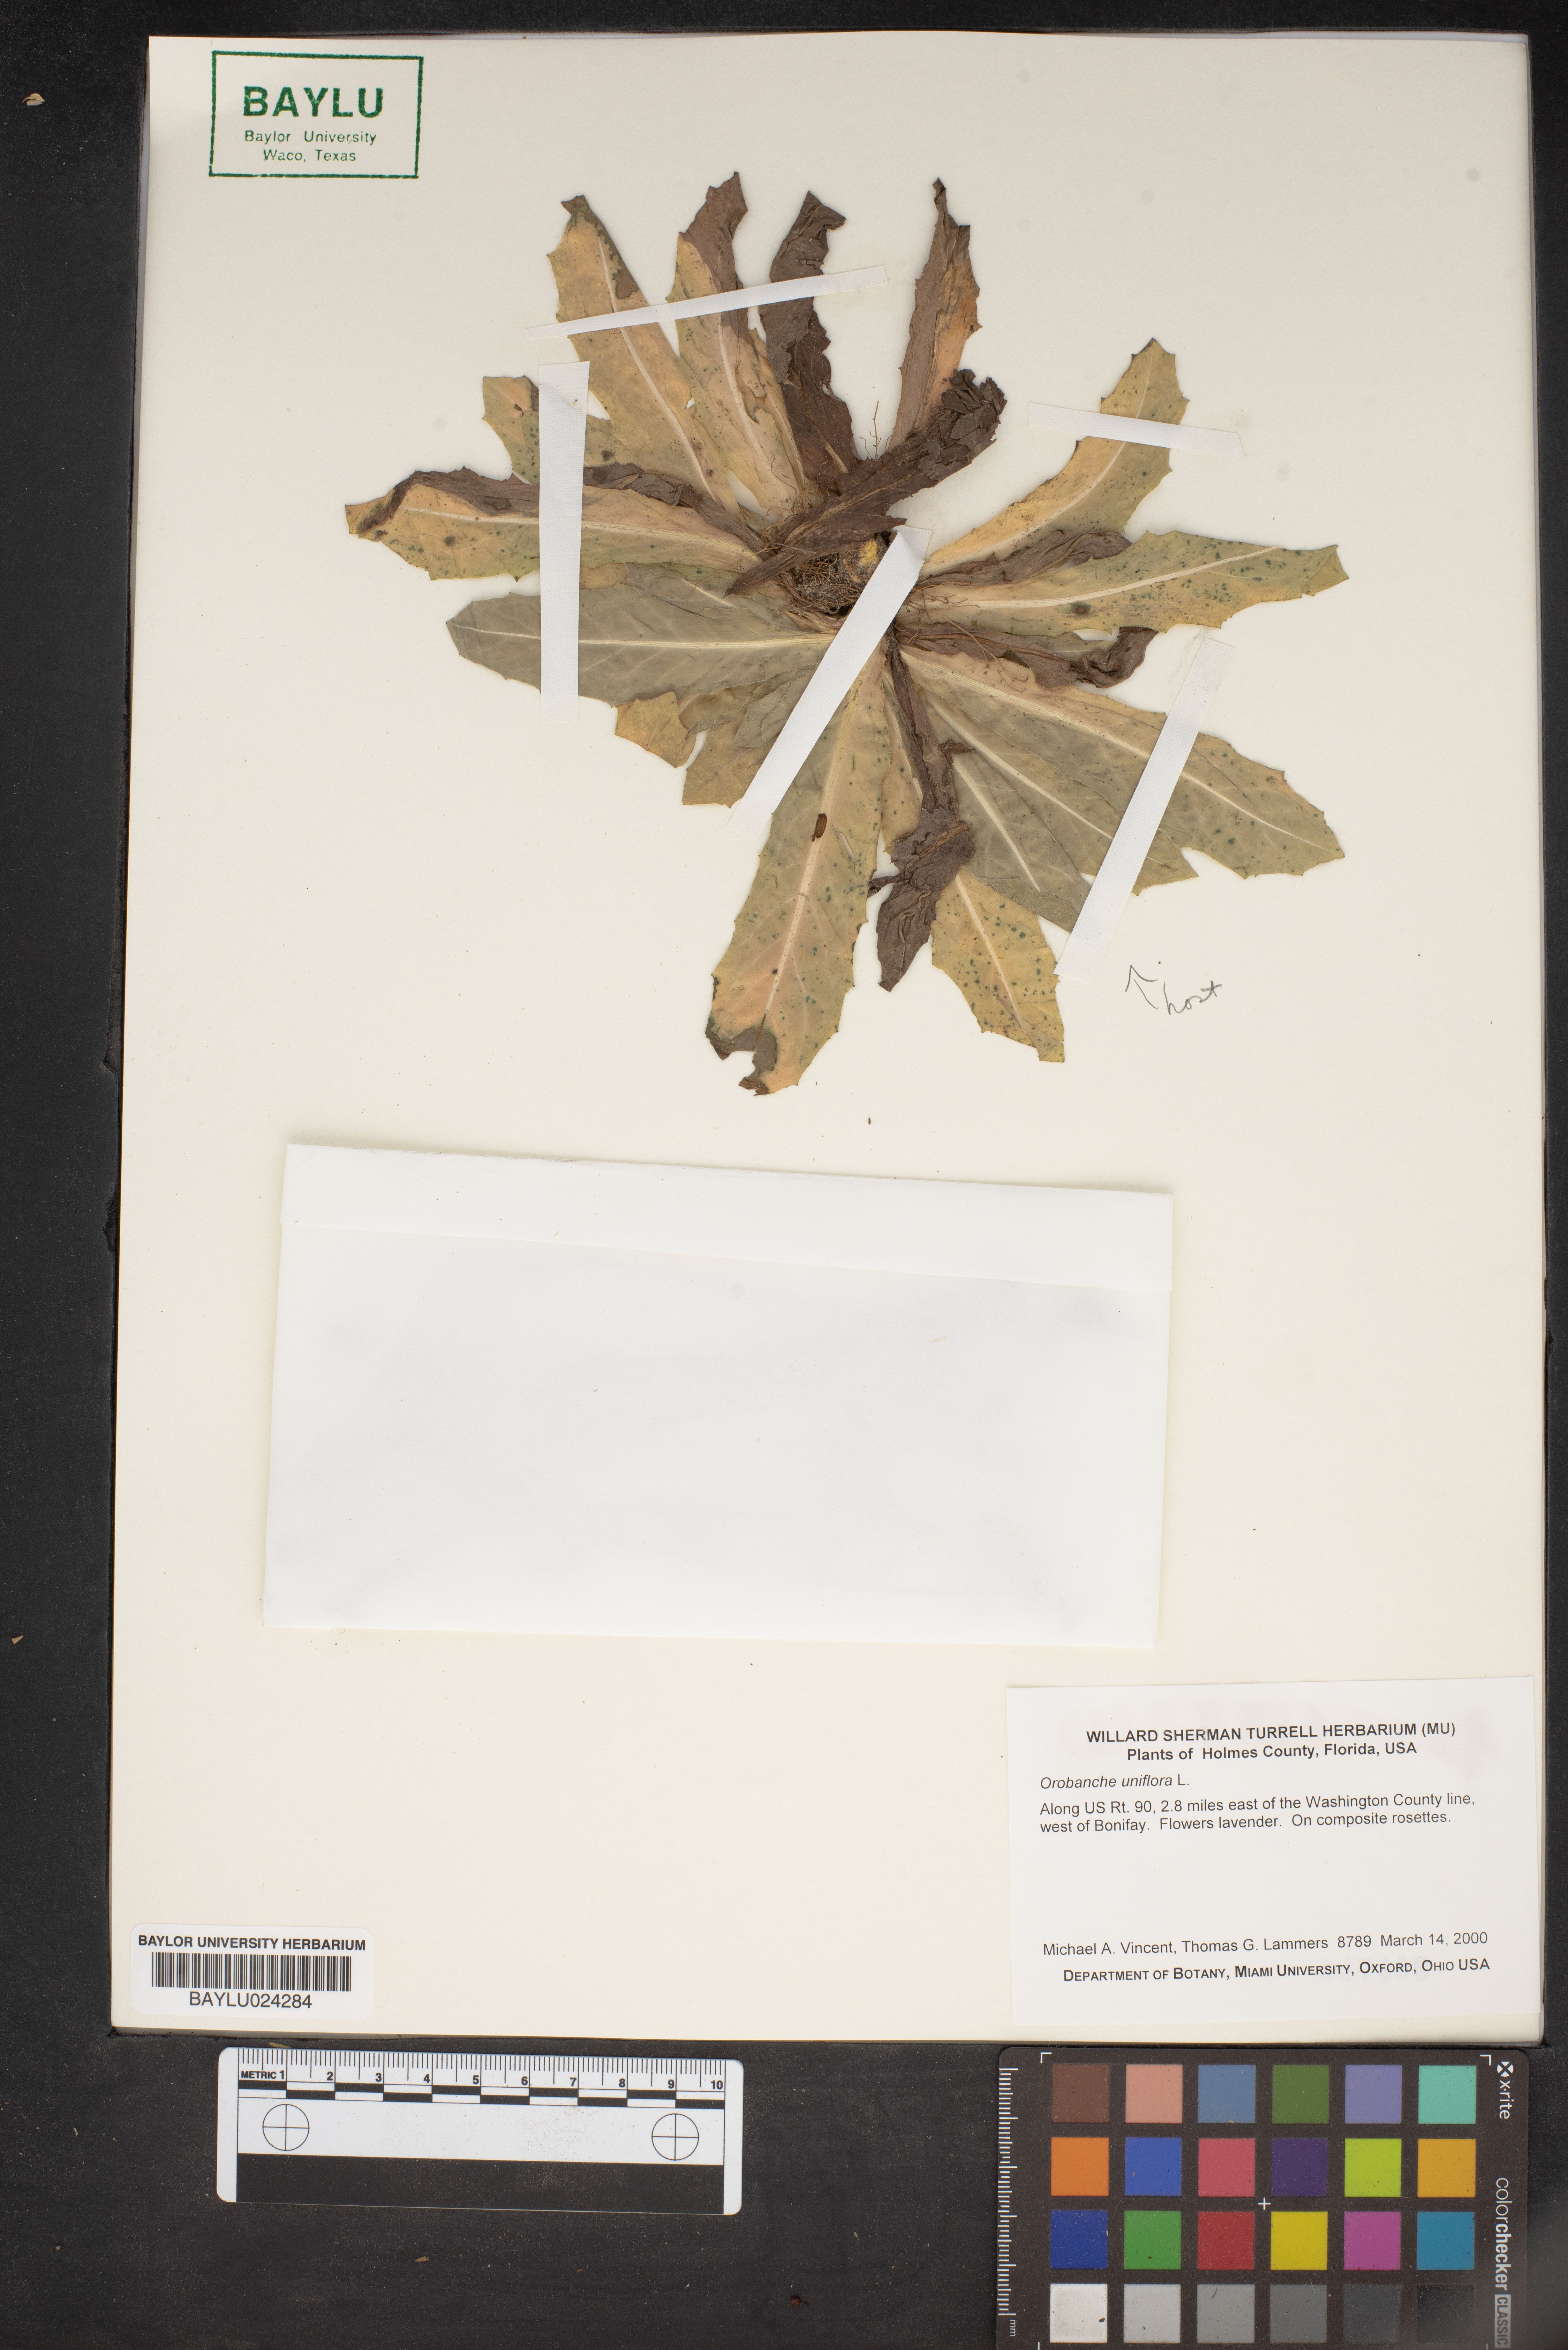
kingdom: Plantae
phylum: Tracheophyta
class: Magnoliopsida
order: Lamiales
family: Orobanchaceae
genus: Aphyllon
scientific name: Aphyllon uniflorum
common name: One-flowered broomrape
